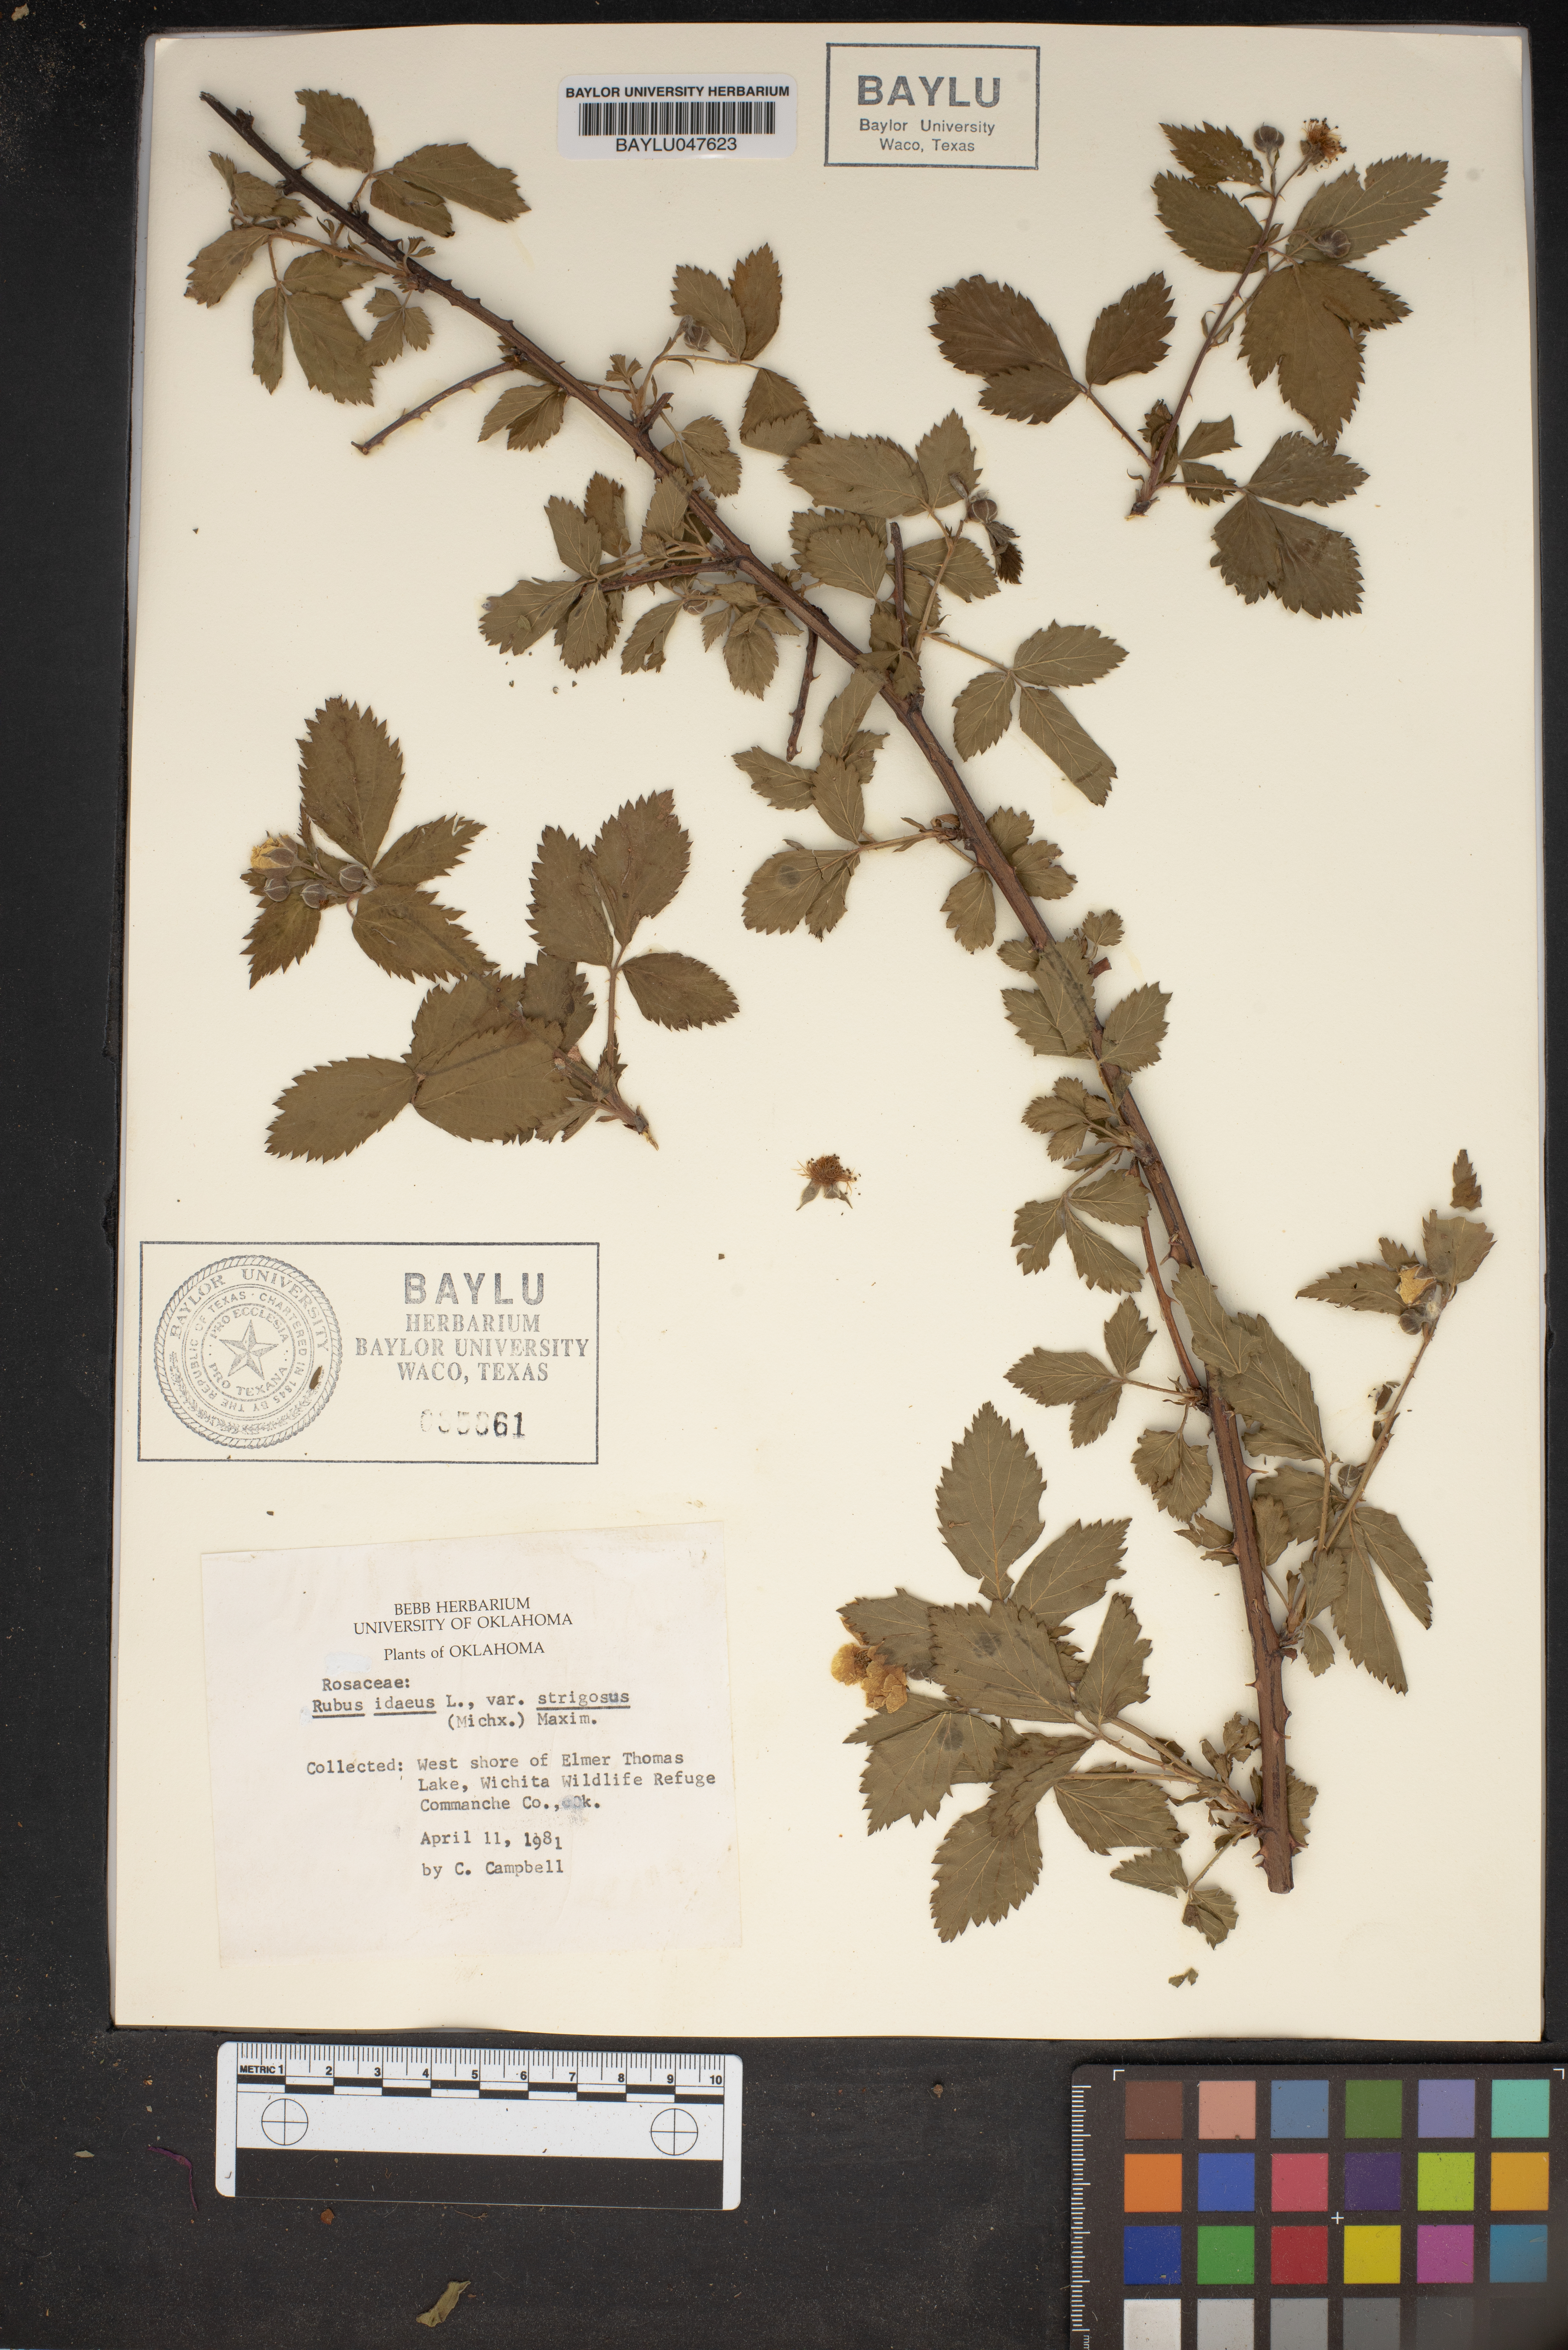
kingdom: Plantae
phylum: Tracheophyta
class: Magnoliopsida
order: Rosales
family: Rosaceae
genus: Rubus
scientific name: Rubus idaeus
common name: Raspberry
